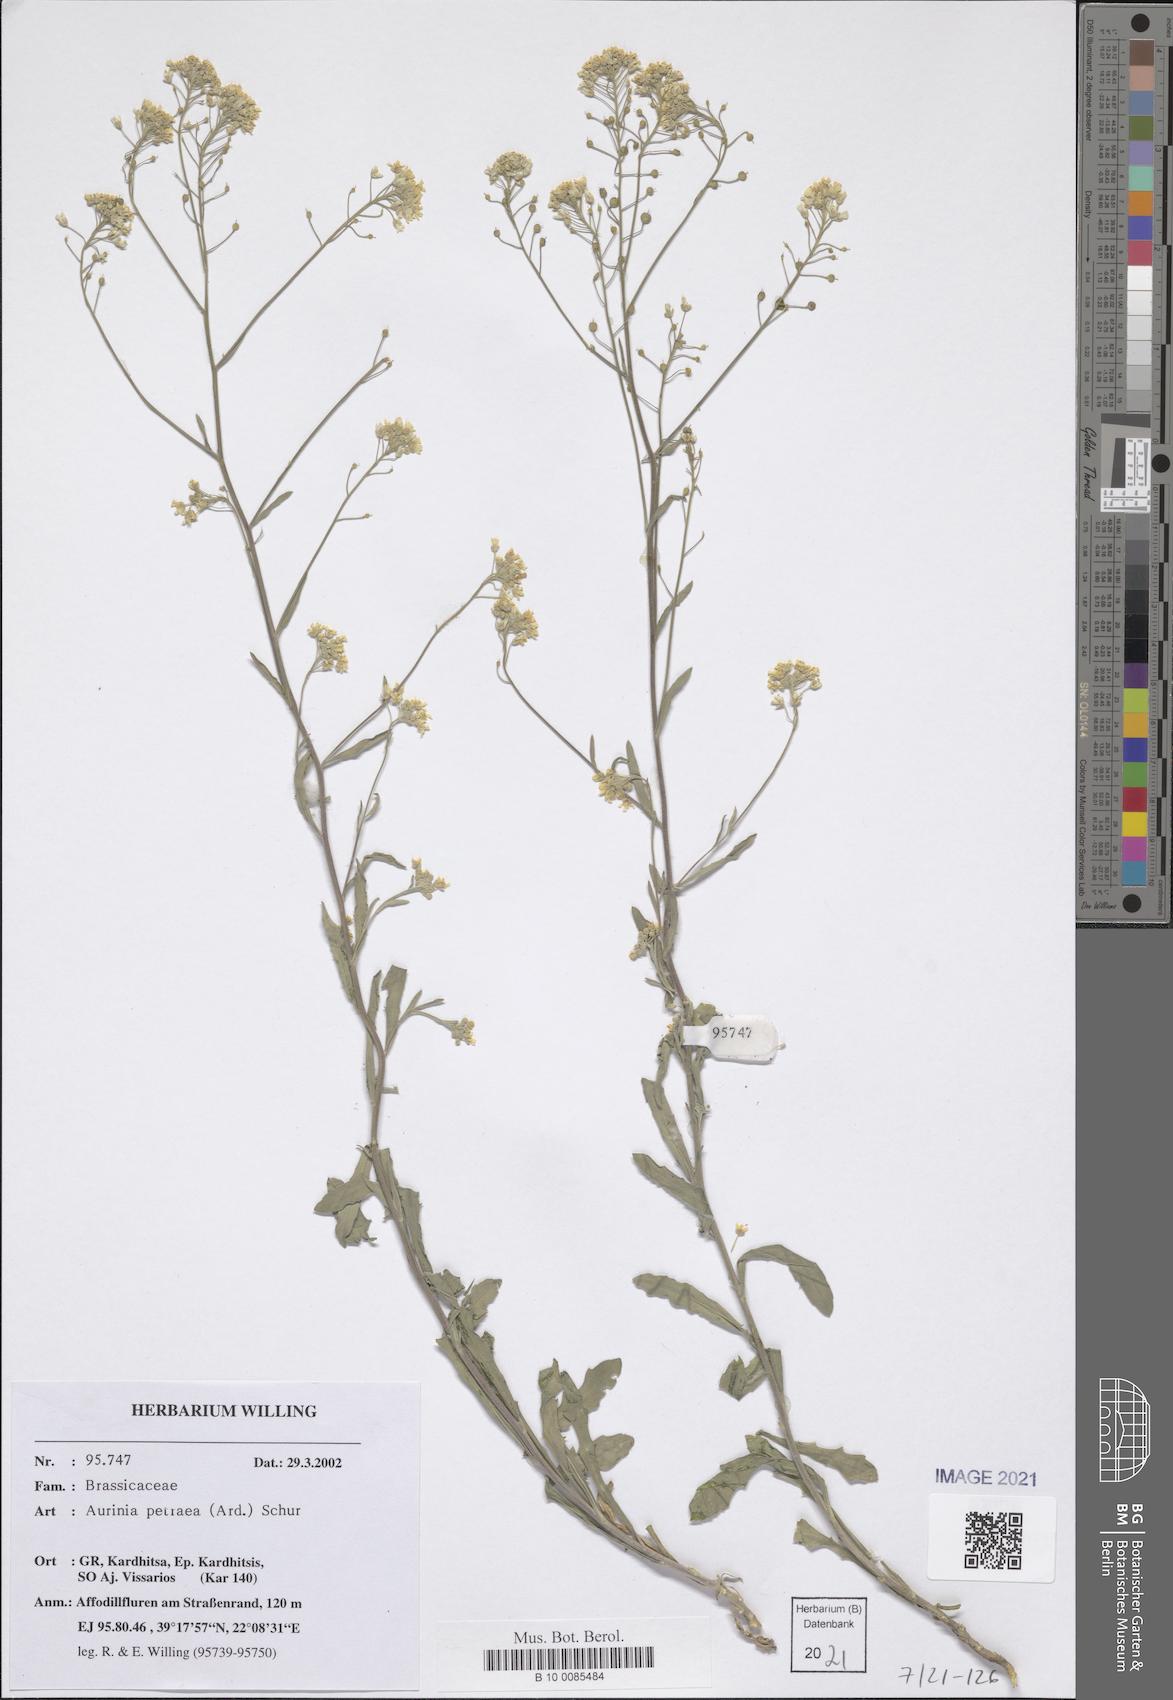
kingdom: Plantae
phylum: Tracheophyta
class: Magnoliopsida
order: Brassicales
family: Brassicaceae
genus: Aurinia
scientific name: Aurinia petraea
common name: Goldentuft
